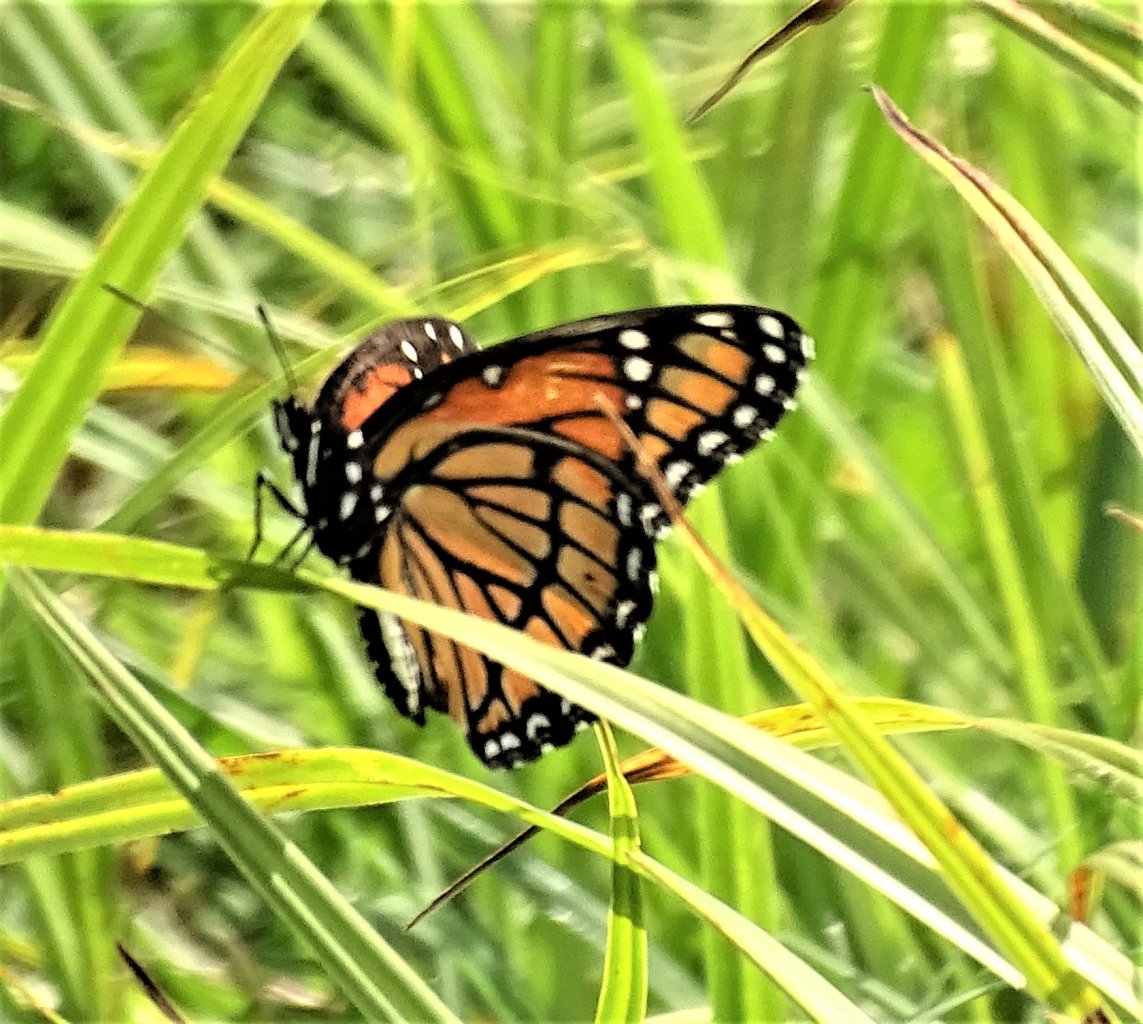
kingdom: Animalia
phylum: Arthropoda
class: Insecta
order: Lepidoptera
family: Nymphalidae
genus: Limenitis
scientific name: Limenitis archippus
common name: Viceroy
